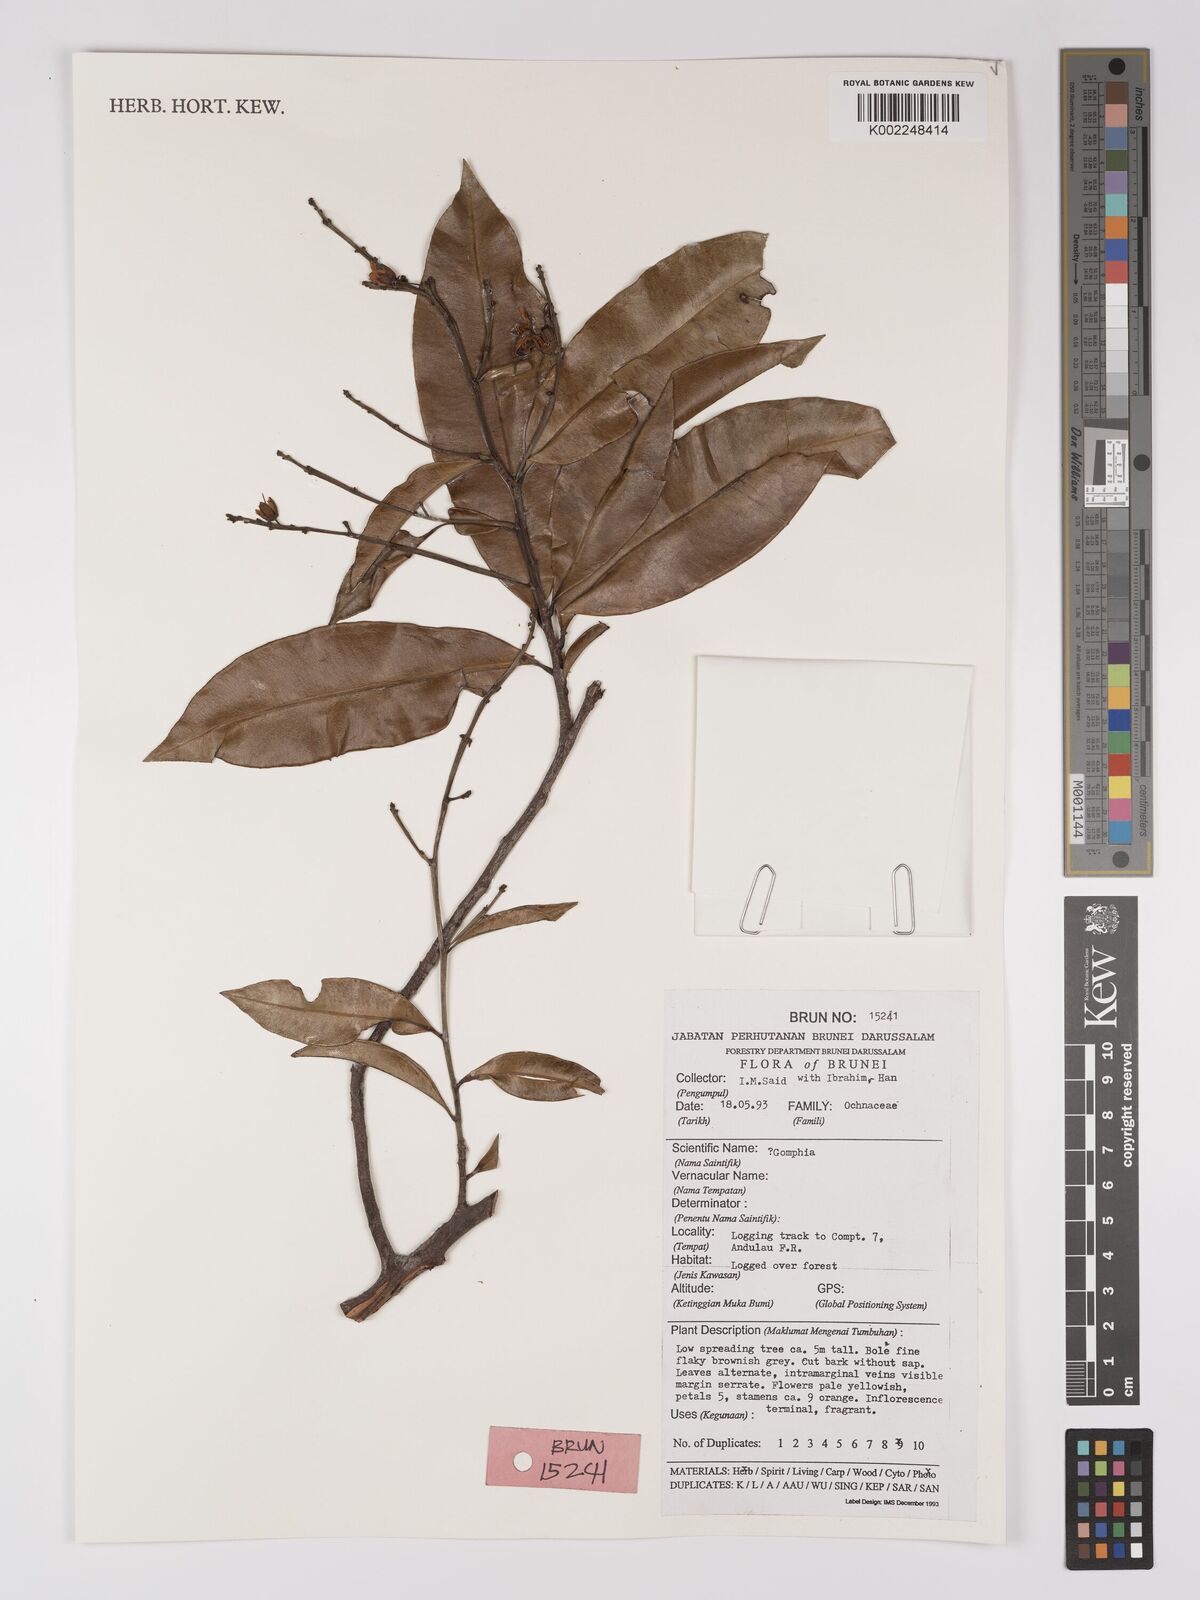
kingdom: Plantae
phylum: Tracheophyta
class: Magnoliopsida
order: Malpighiales
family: Ochnaceae
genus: Gomphia
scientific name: Gomphia serrata
